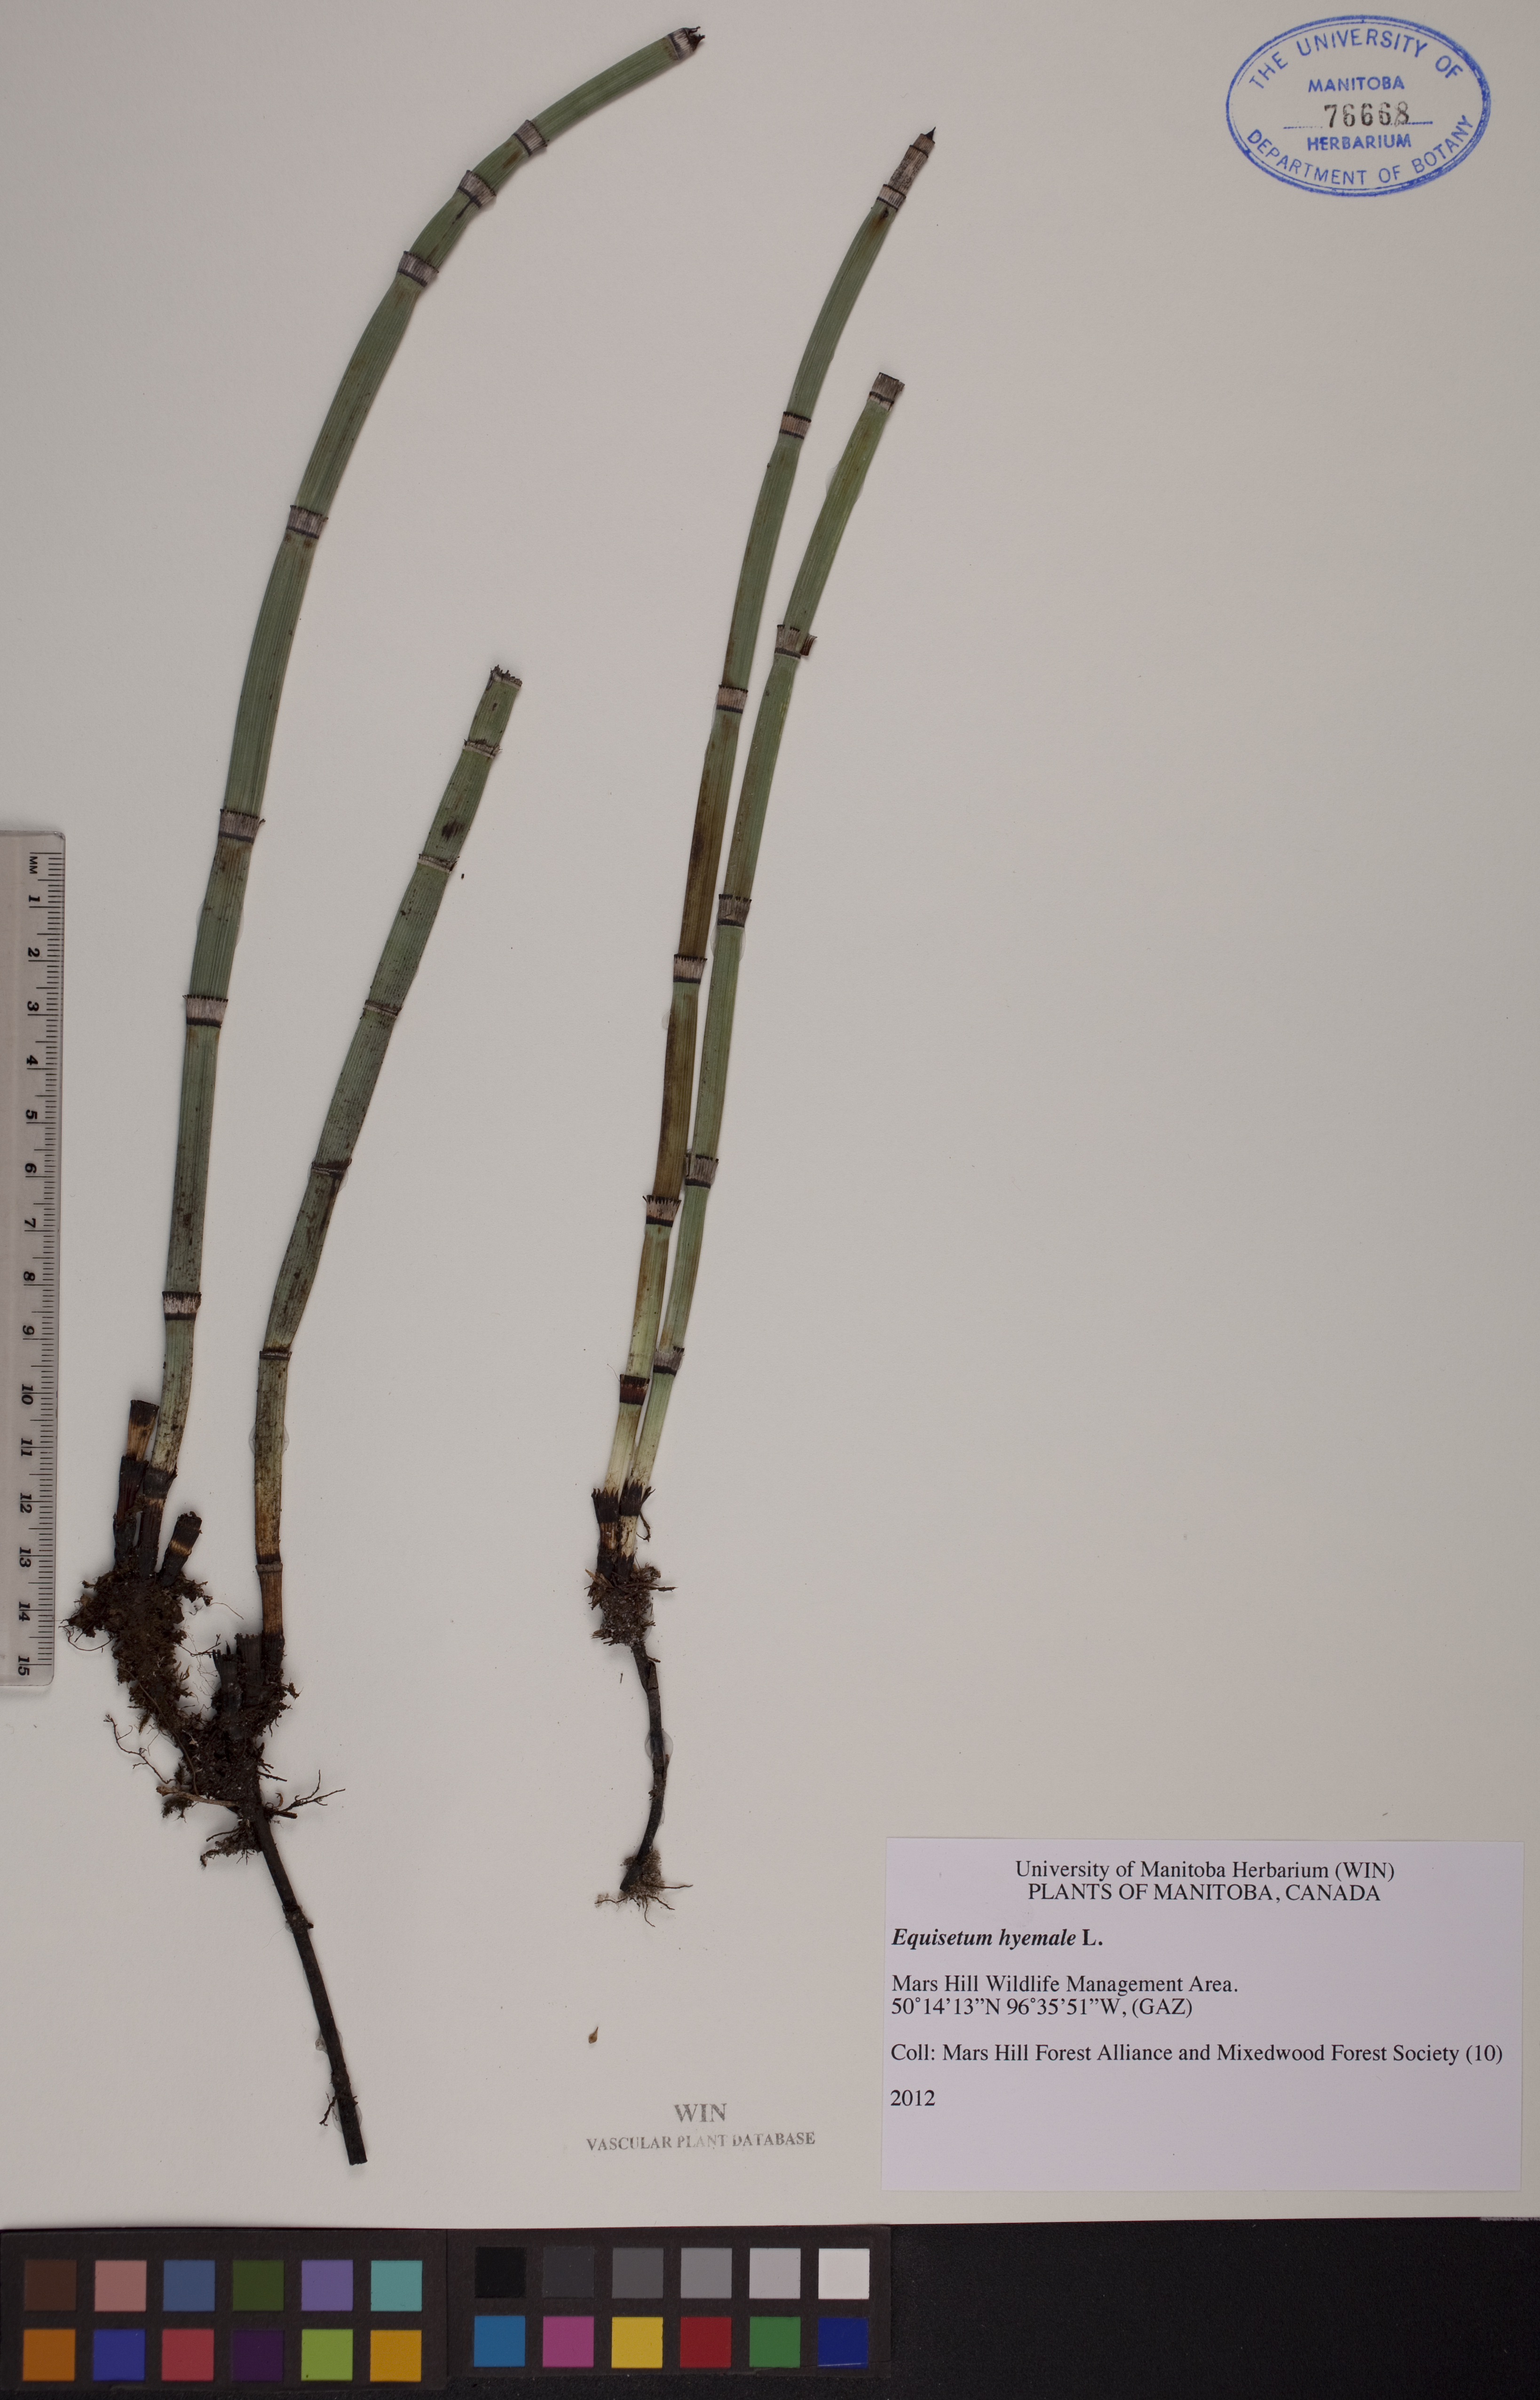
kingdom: Plantae
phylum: Tracheophyta
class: Polypodiopsida
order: Equisetales
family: Equisetaceae
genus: Equisetum
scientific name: Equisetum hyemale
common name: Rough horsetail
